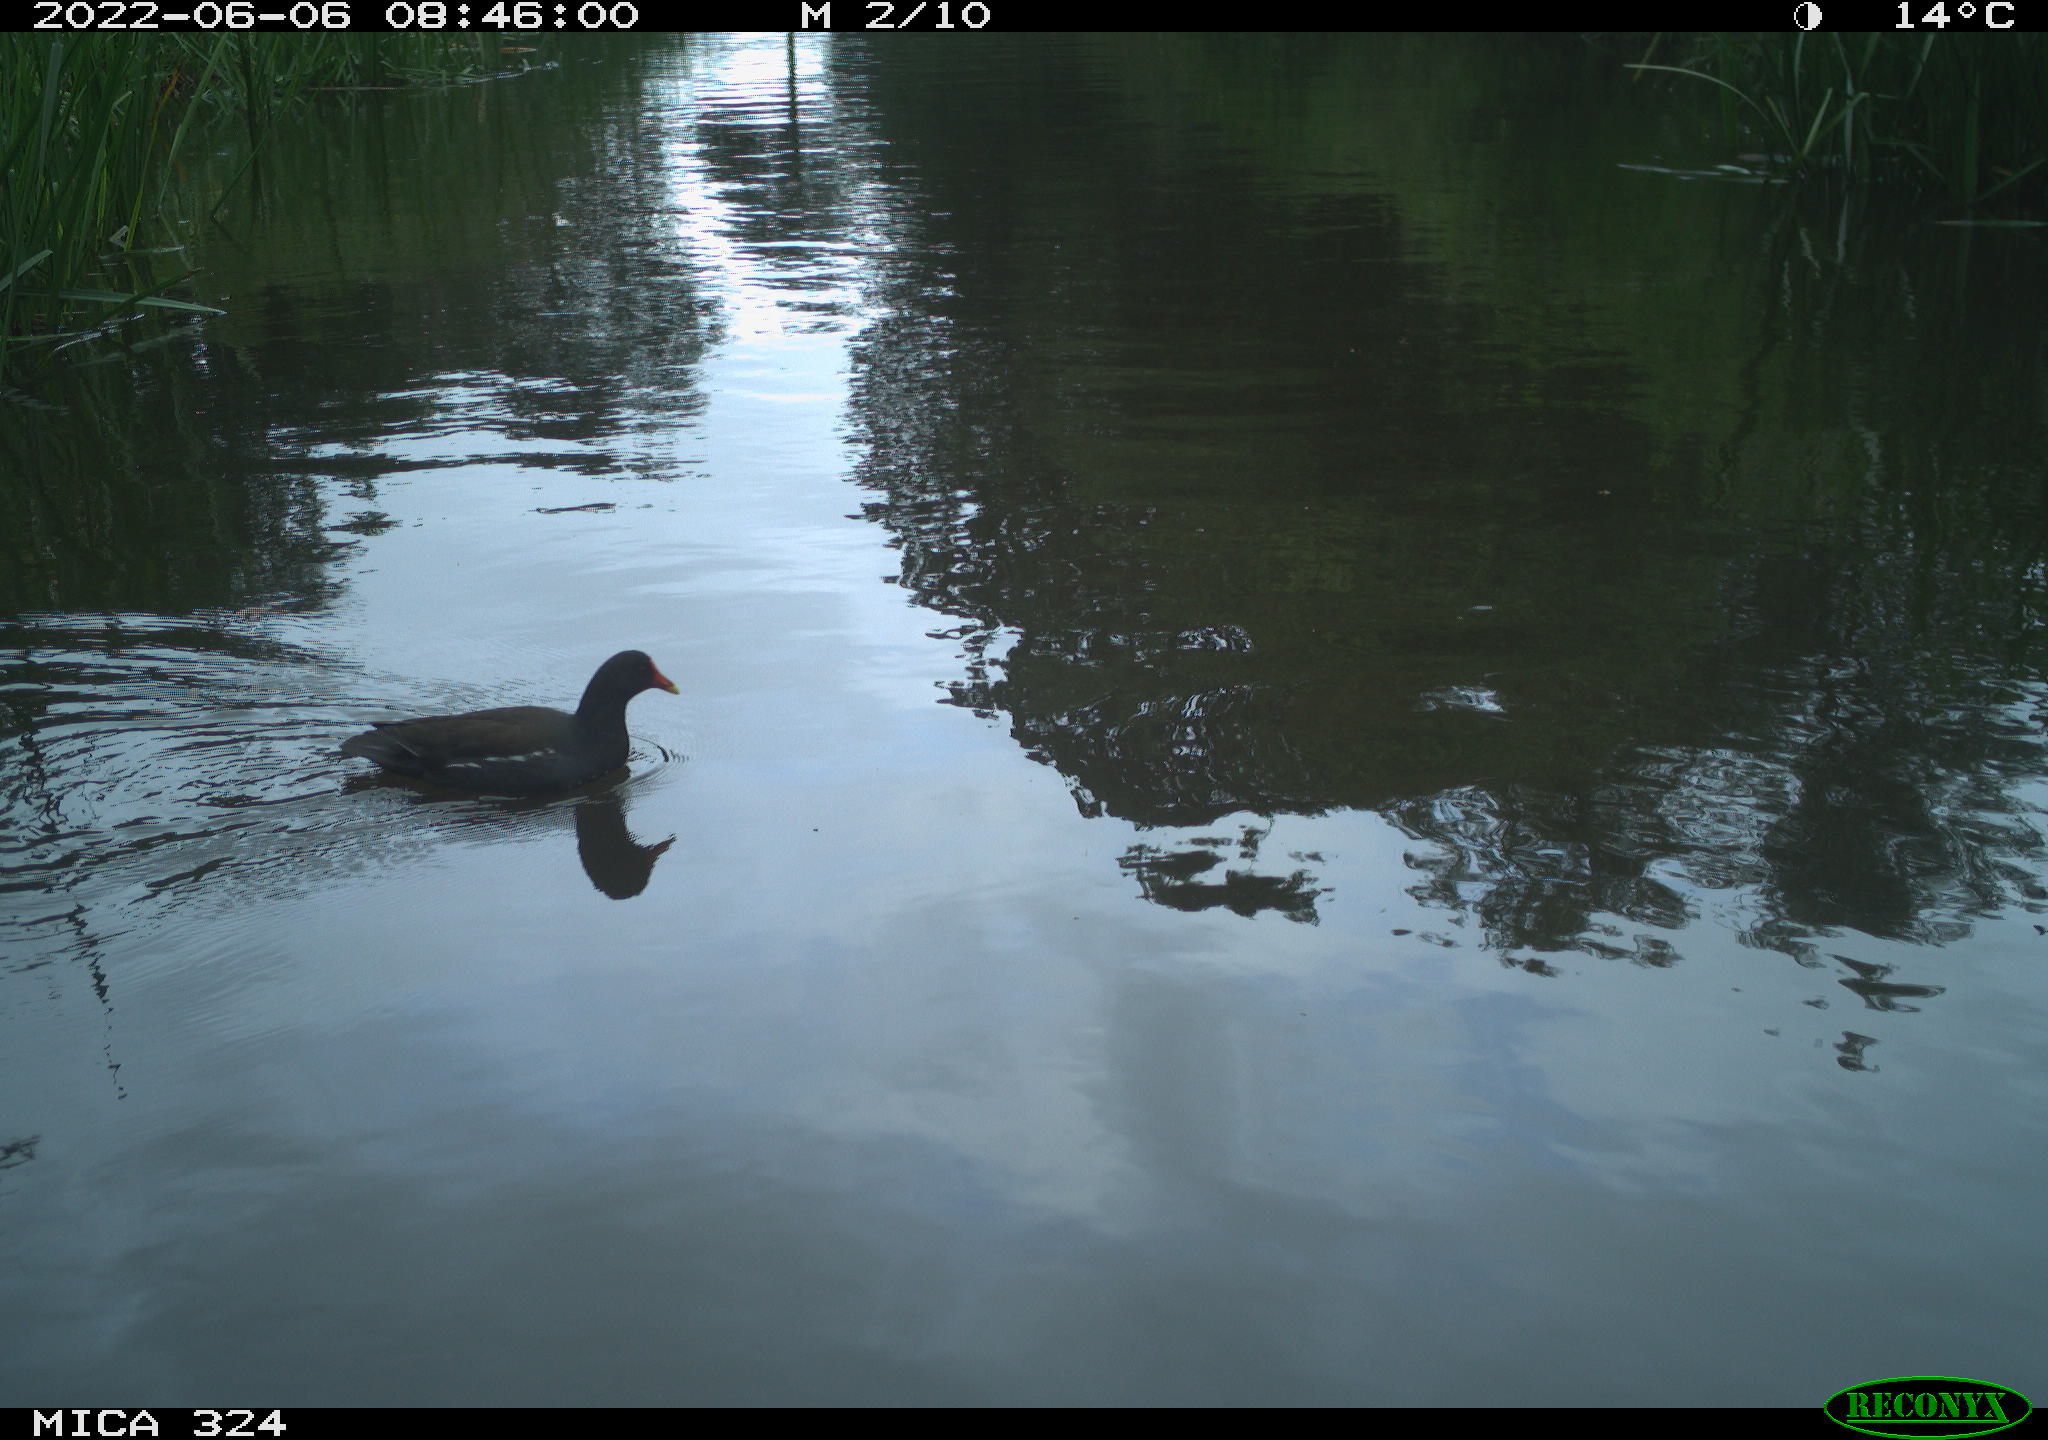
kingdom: Animalia
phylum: Chordata
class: Aves
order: Gruiformes
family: Rallidae
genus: Gallinula
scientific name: Gallinula chloropus
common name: Common moorhen
